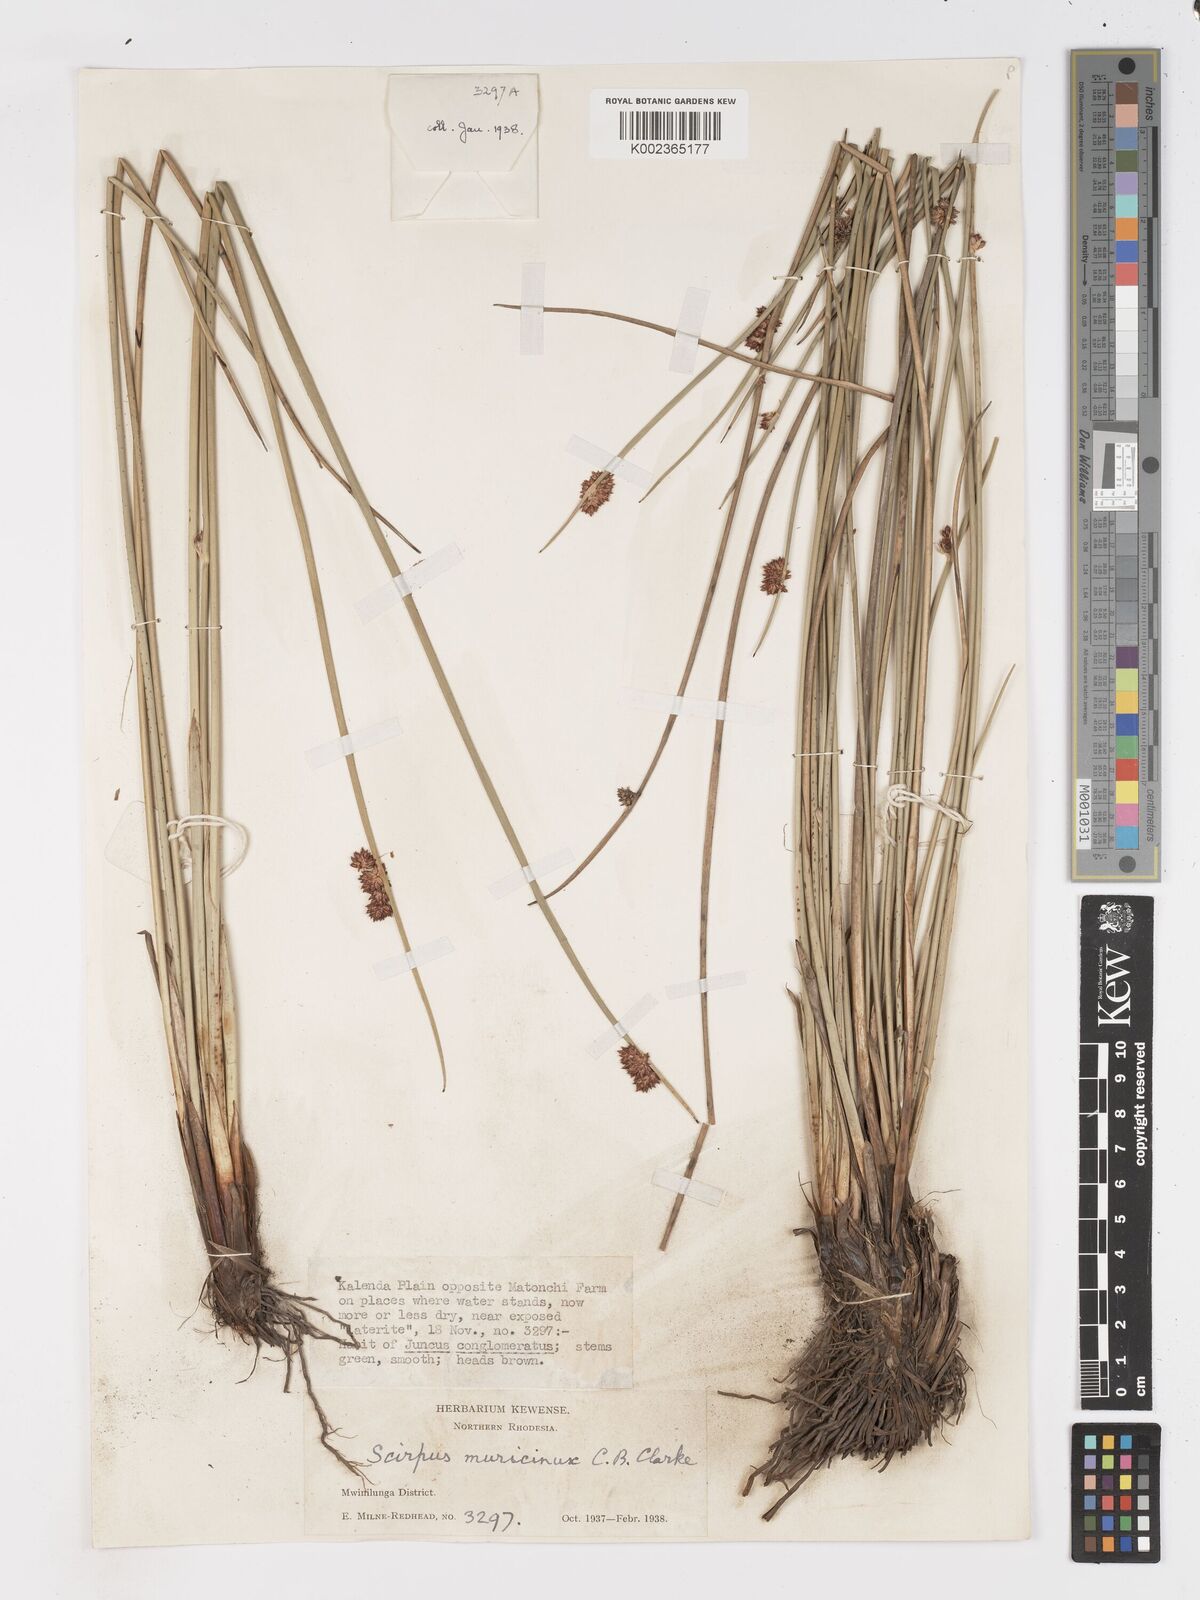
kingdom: Plantae
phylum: Tracheophyta
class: Liliopsida
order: Poales
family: Cyperaceae
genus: Schoenoplectiella
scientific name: Schoenoplectiella muricinux
